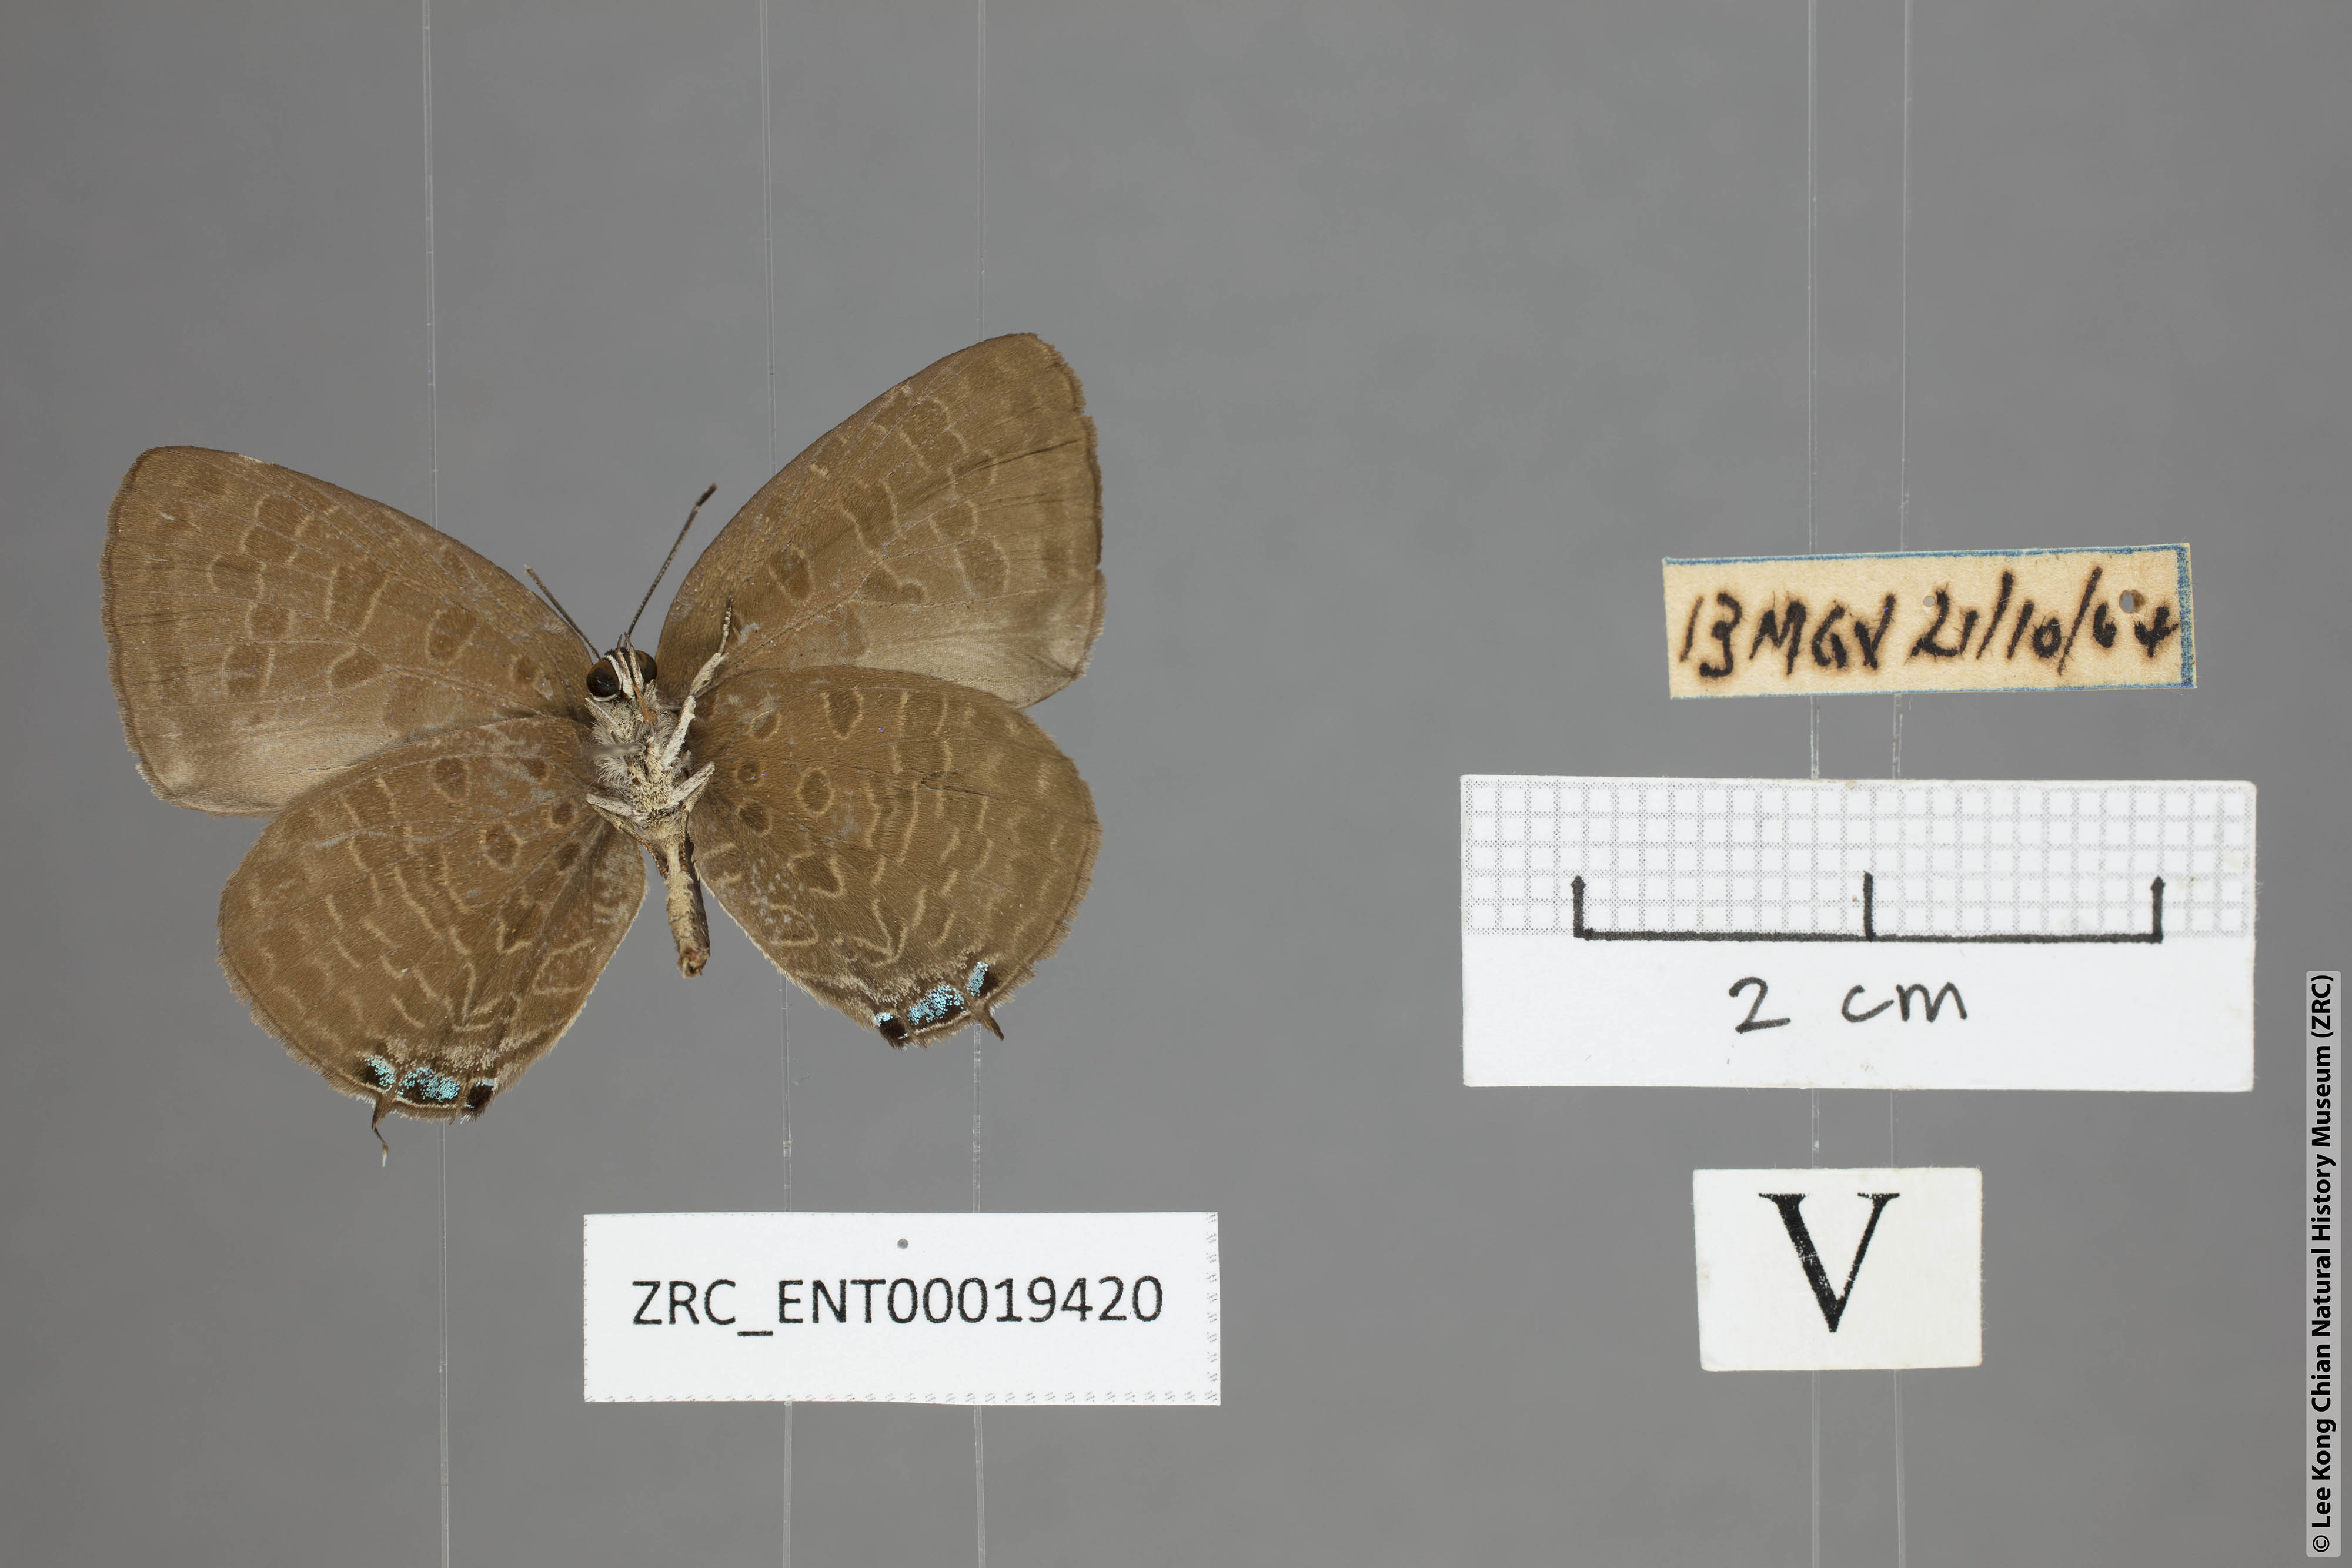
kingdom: Animalia
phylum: Arthropoda
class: Insecta
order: Lepidoptera
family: Lycaenidae
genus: Arhopala
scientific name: Arhopala elopura
